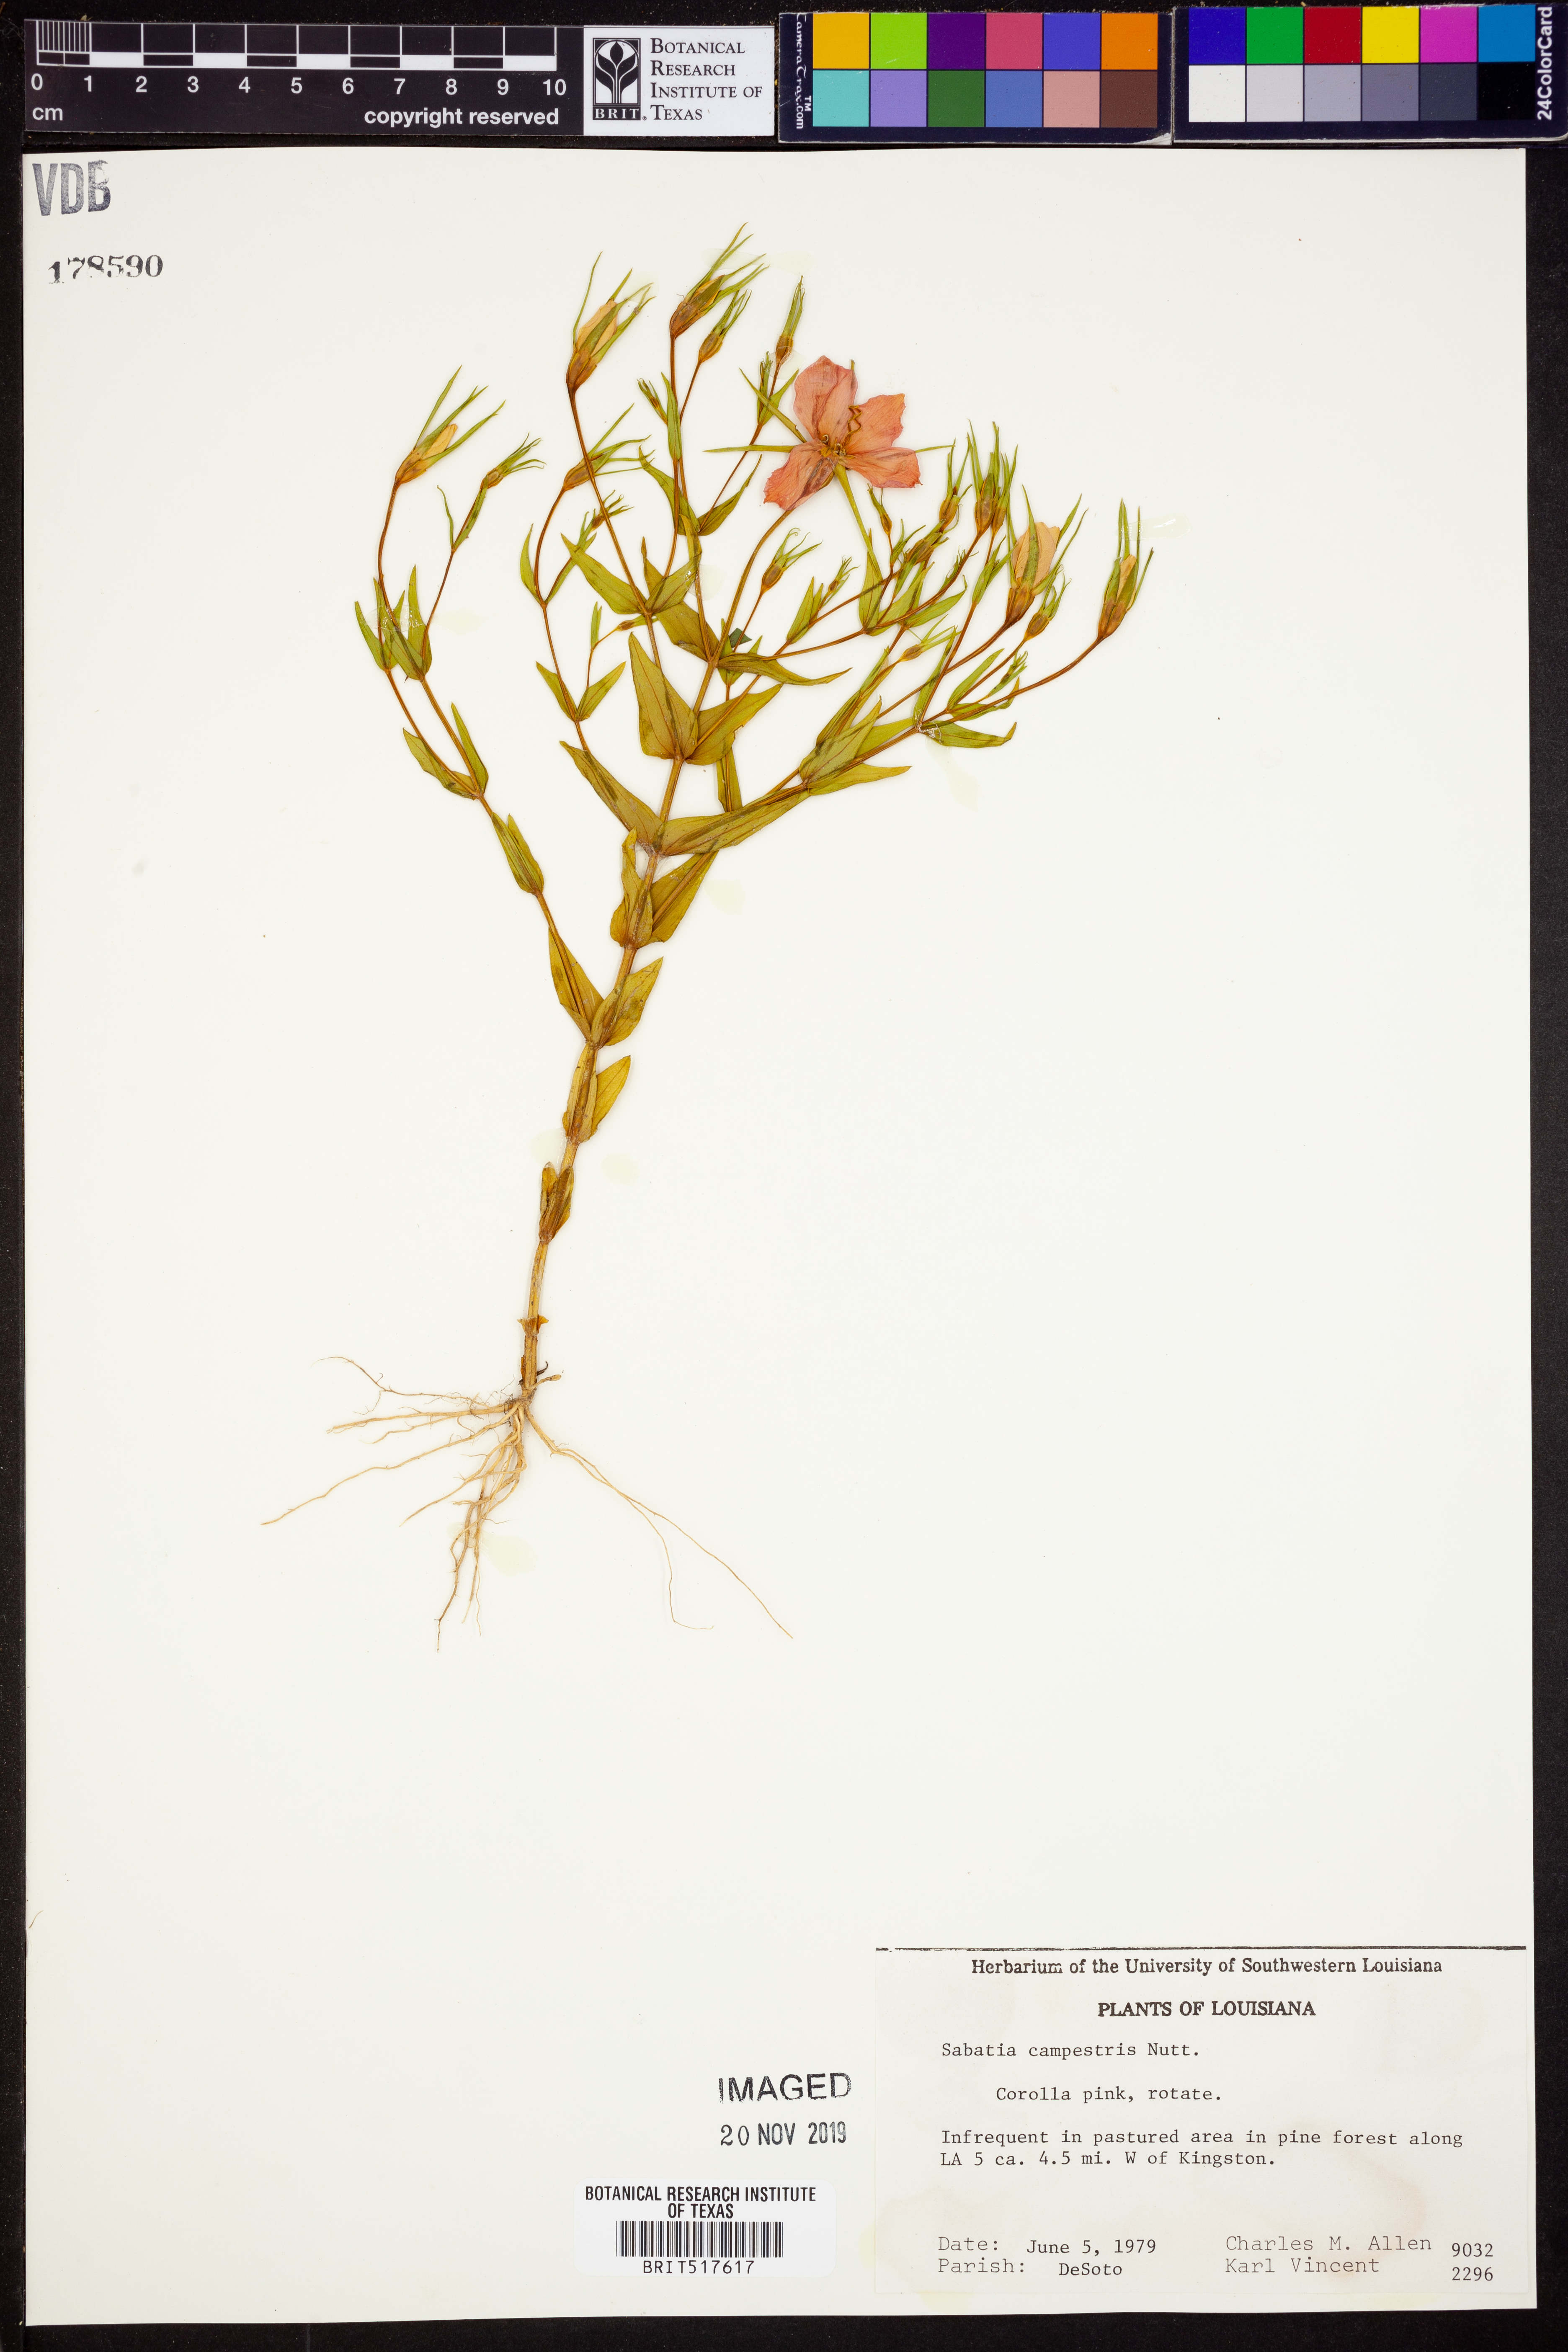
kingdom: Plantae
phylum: Tracheophyta
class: Magnoliopsida
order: Gentianales
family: Gentianaceae
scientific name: Gentianaceae
